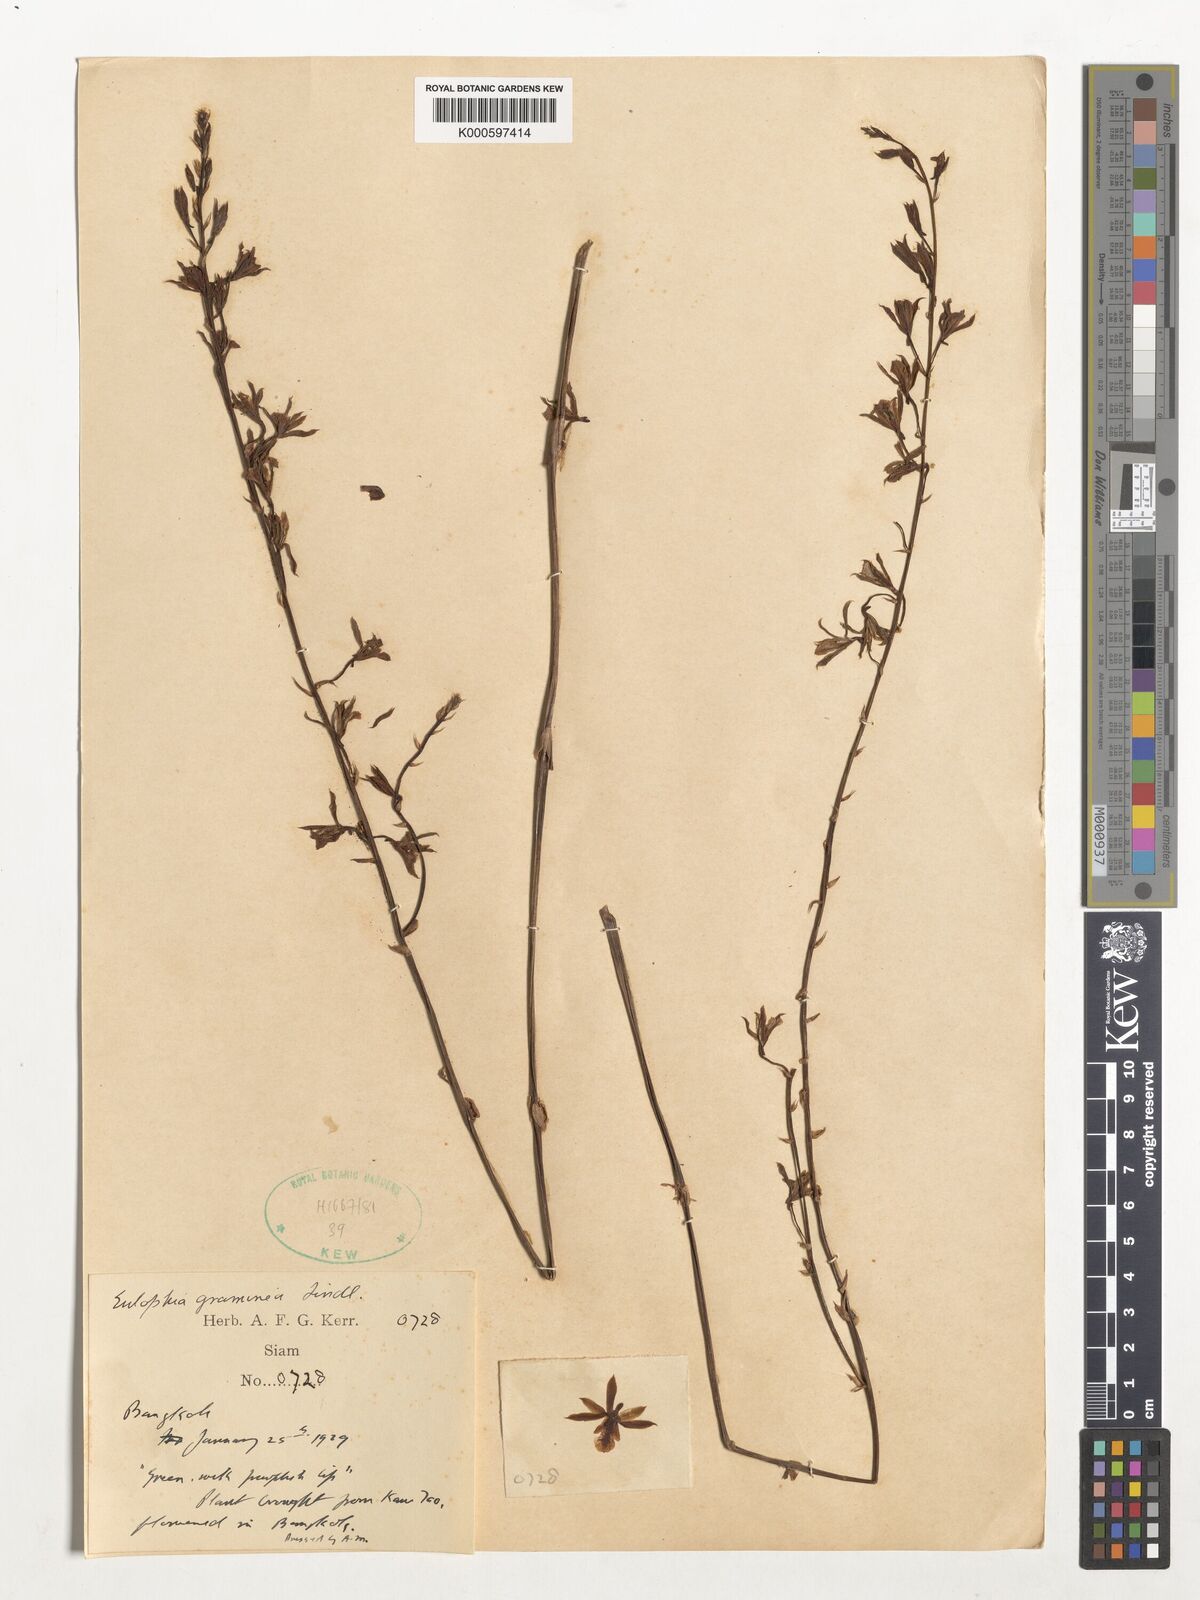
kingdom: Plantae
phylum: Tracheophyta
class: Liliopsida
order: Asparagales
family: Orchidaceae
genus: Eulophia
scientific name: Eulophia graminea
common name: Orchid
